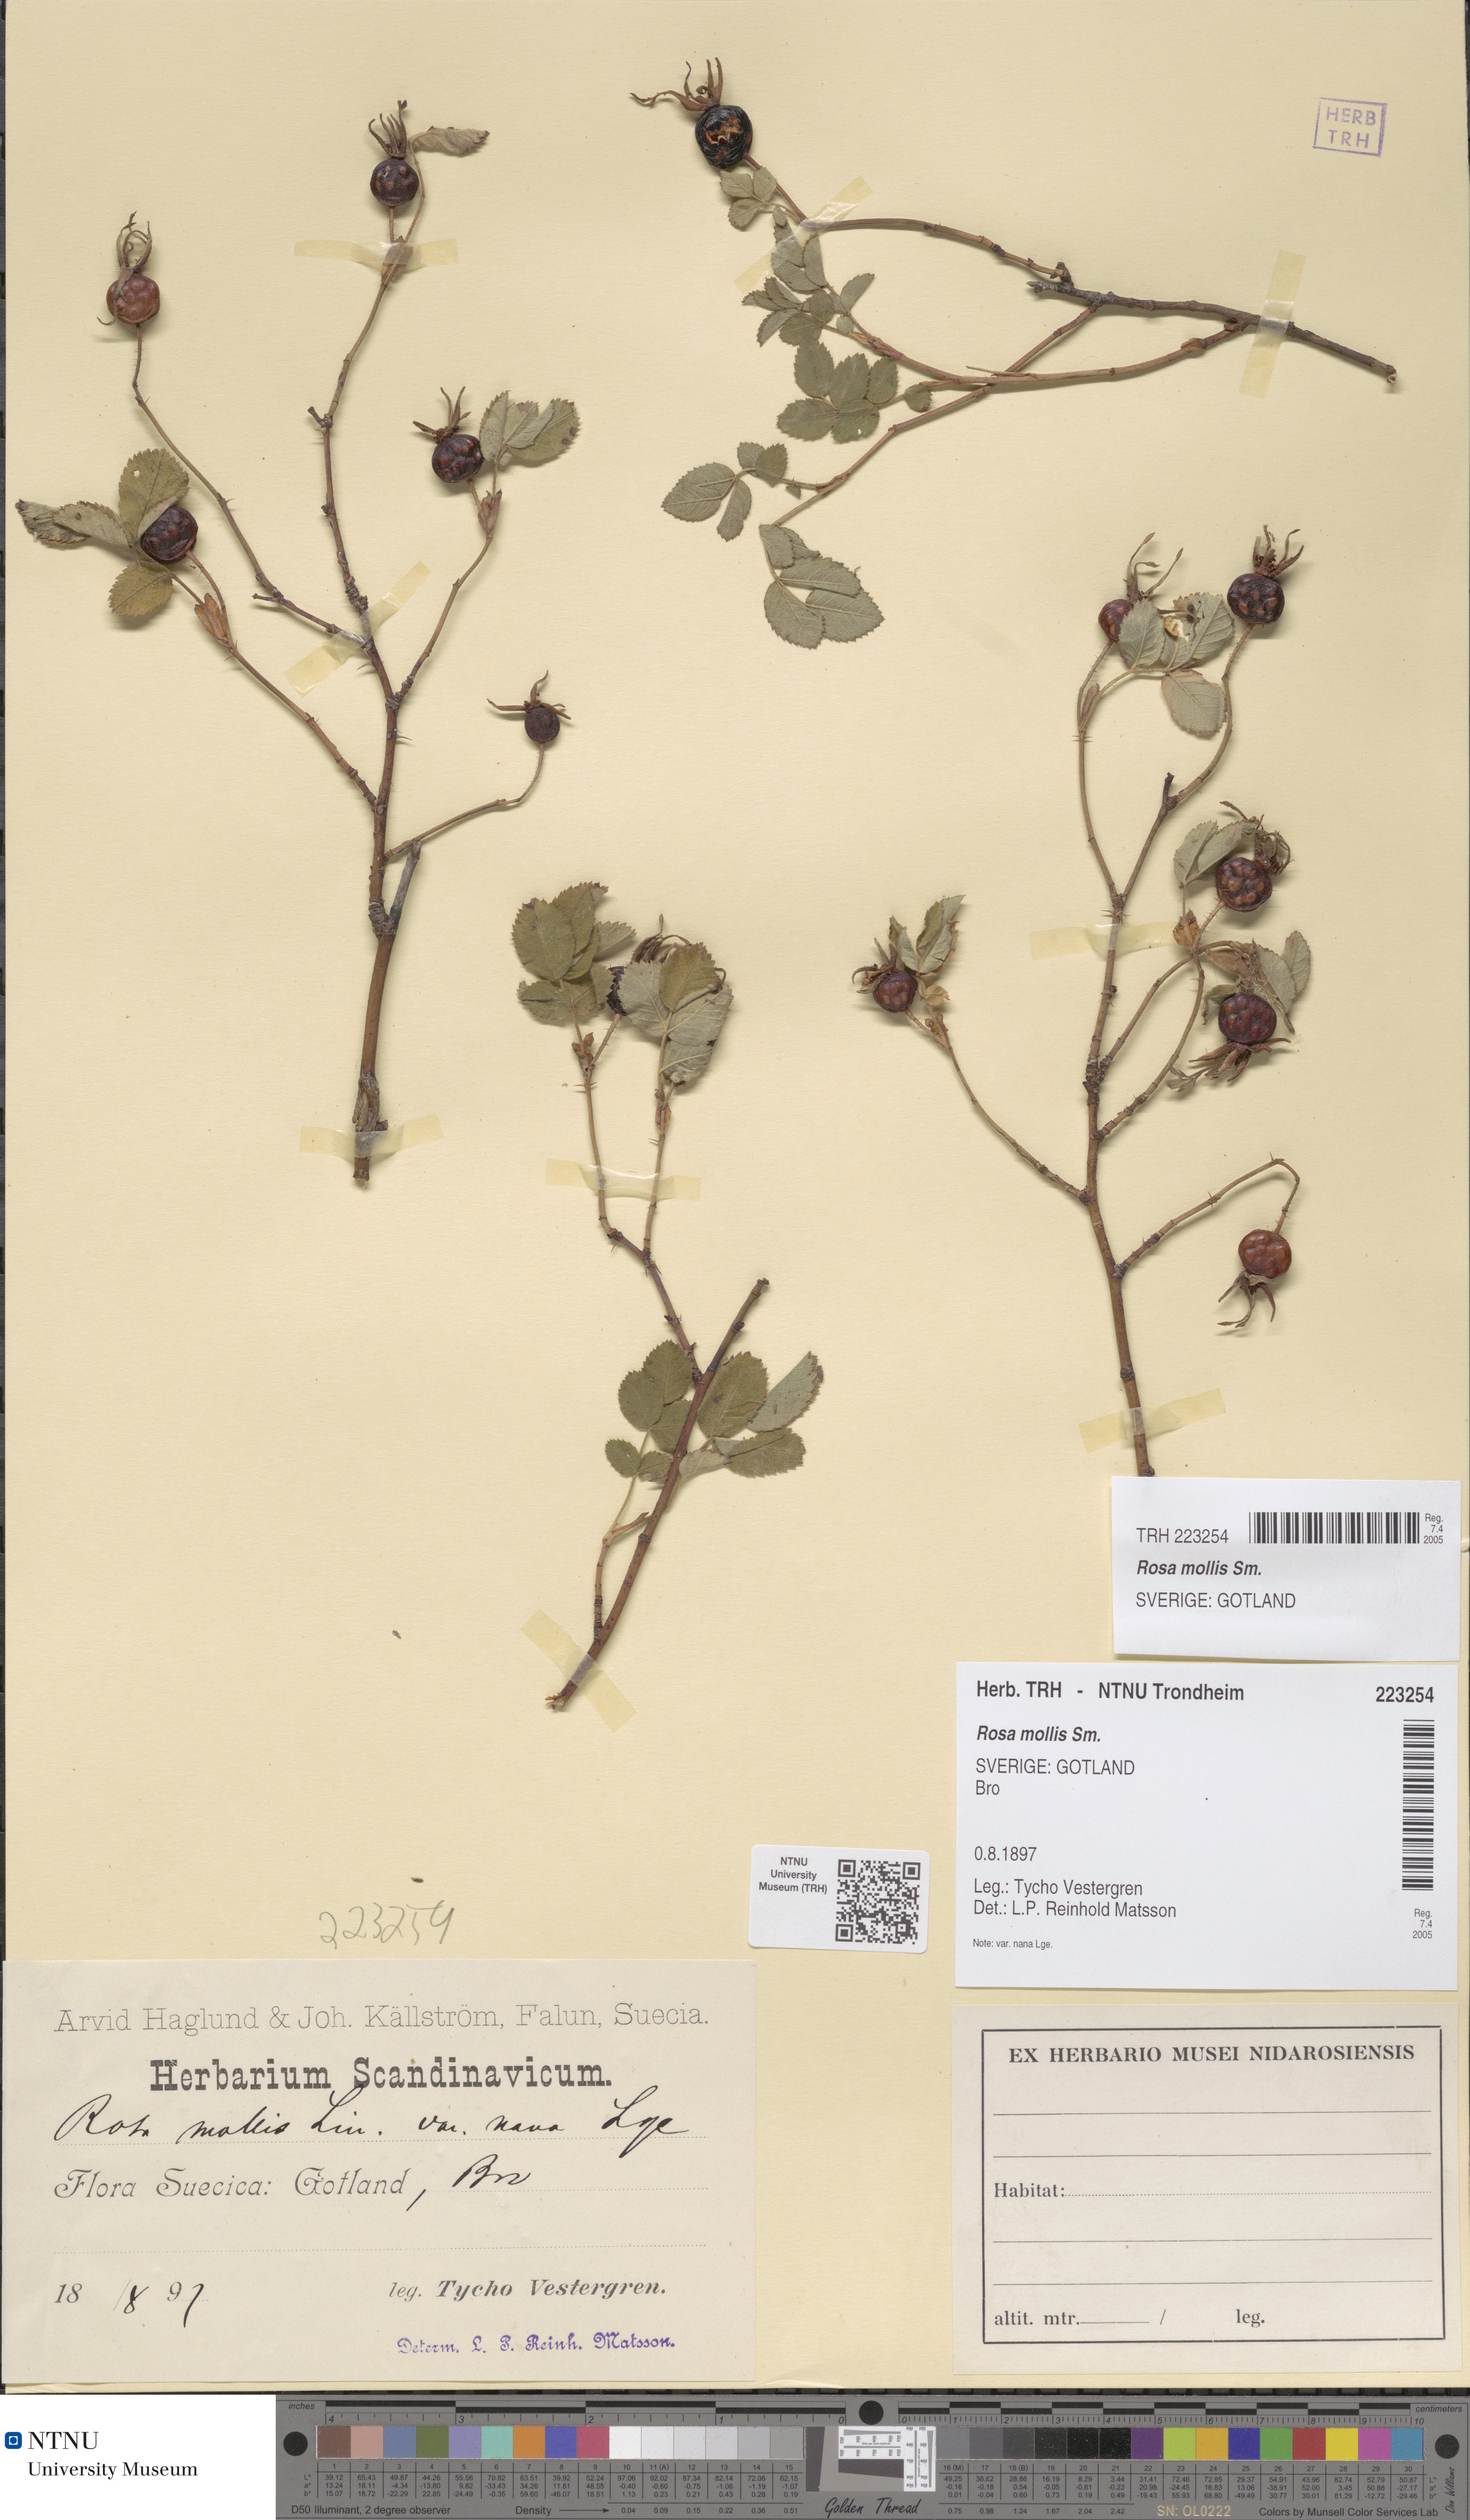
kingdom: Plantae
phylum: Tracheophyta
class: Magnoliopsida
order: Rosales
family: Rosaceae
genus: Rosa
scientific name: Rosa mollis
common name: Rose
